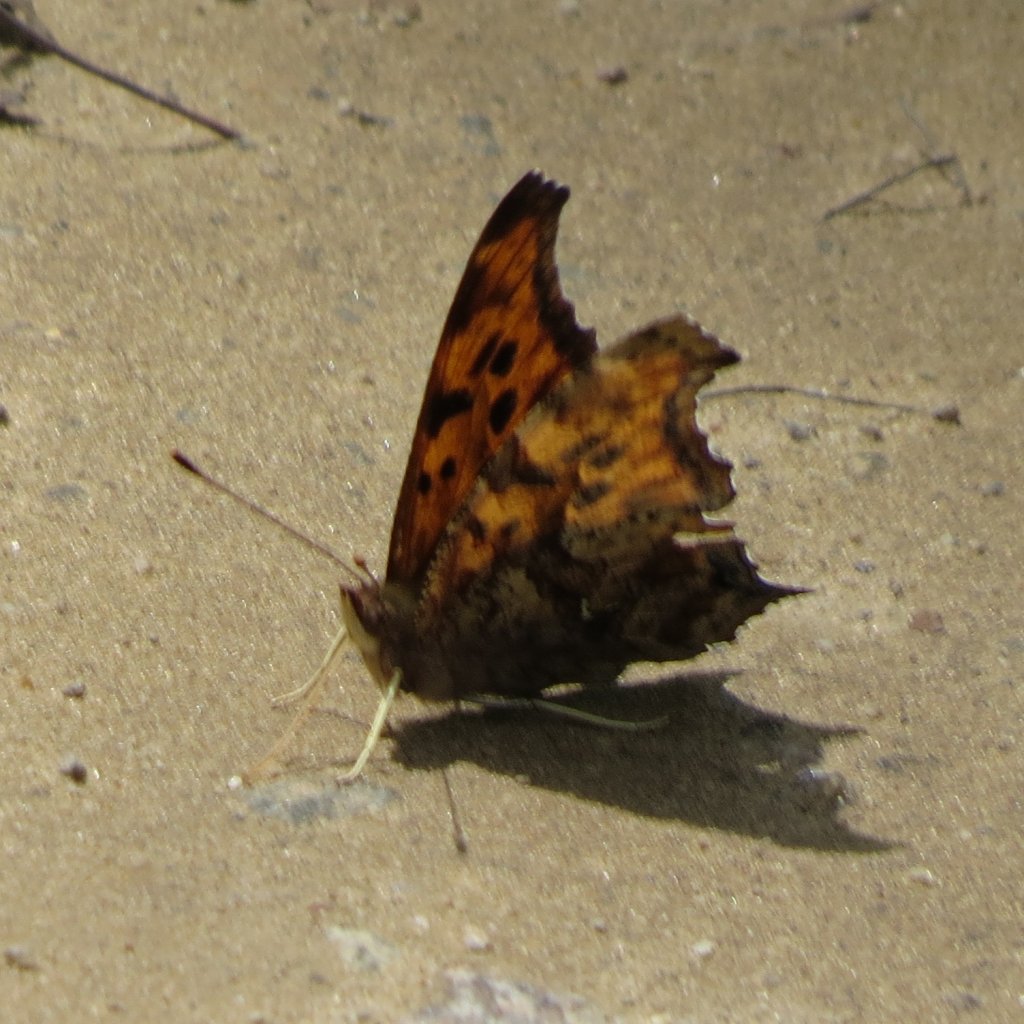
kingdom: Animalia
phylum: Arthropoda
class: Insecta
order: Lepidoptera
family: Nymphalidae
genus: Polygonia
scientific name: Polygonia interrogationis
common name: Question Mark
